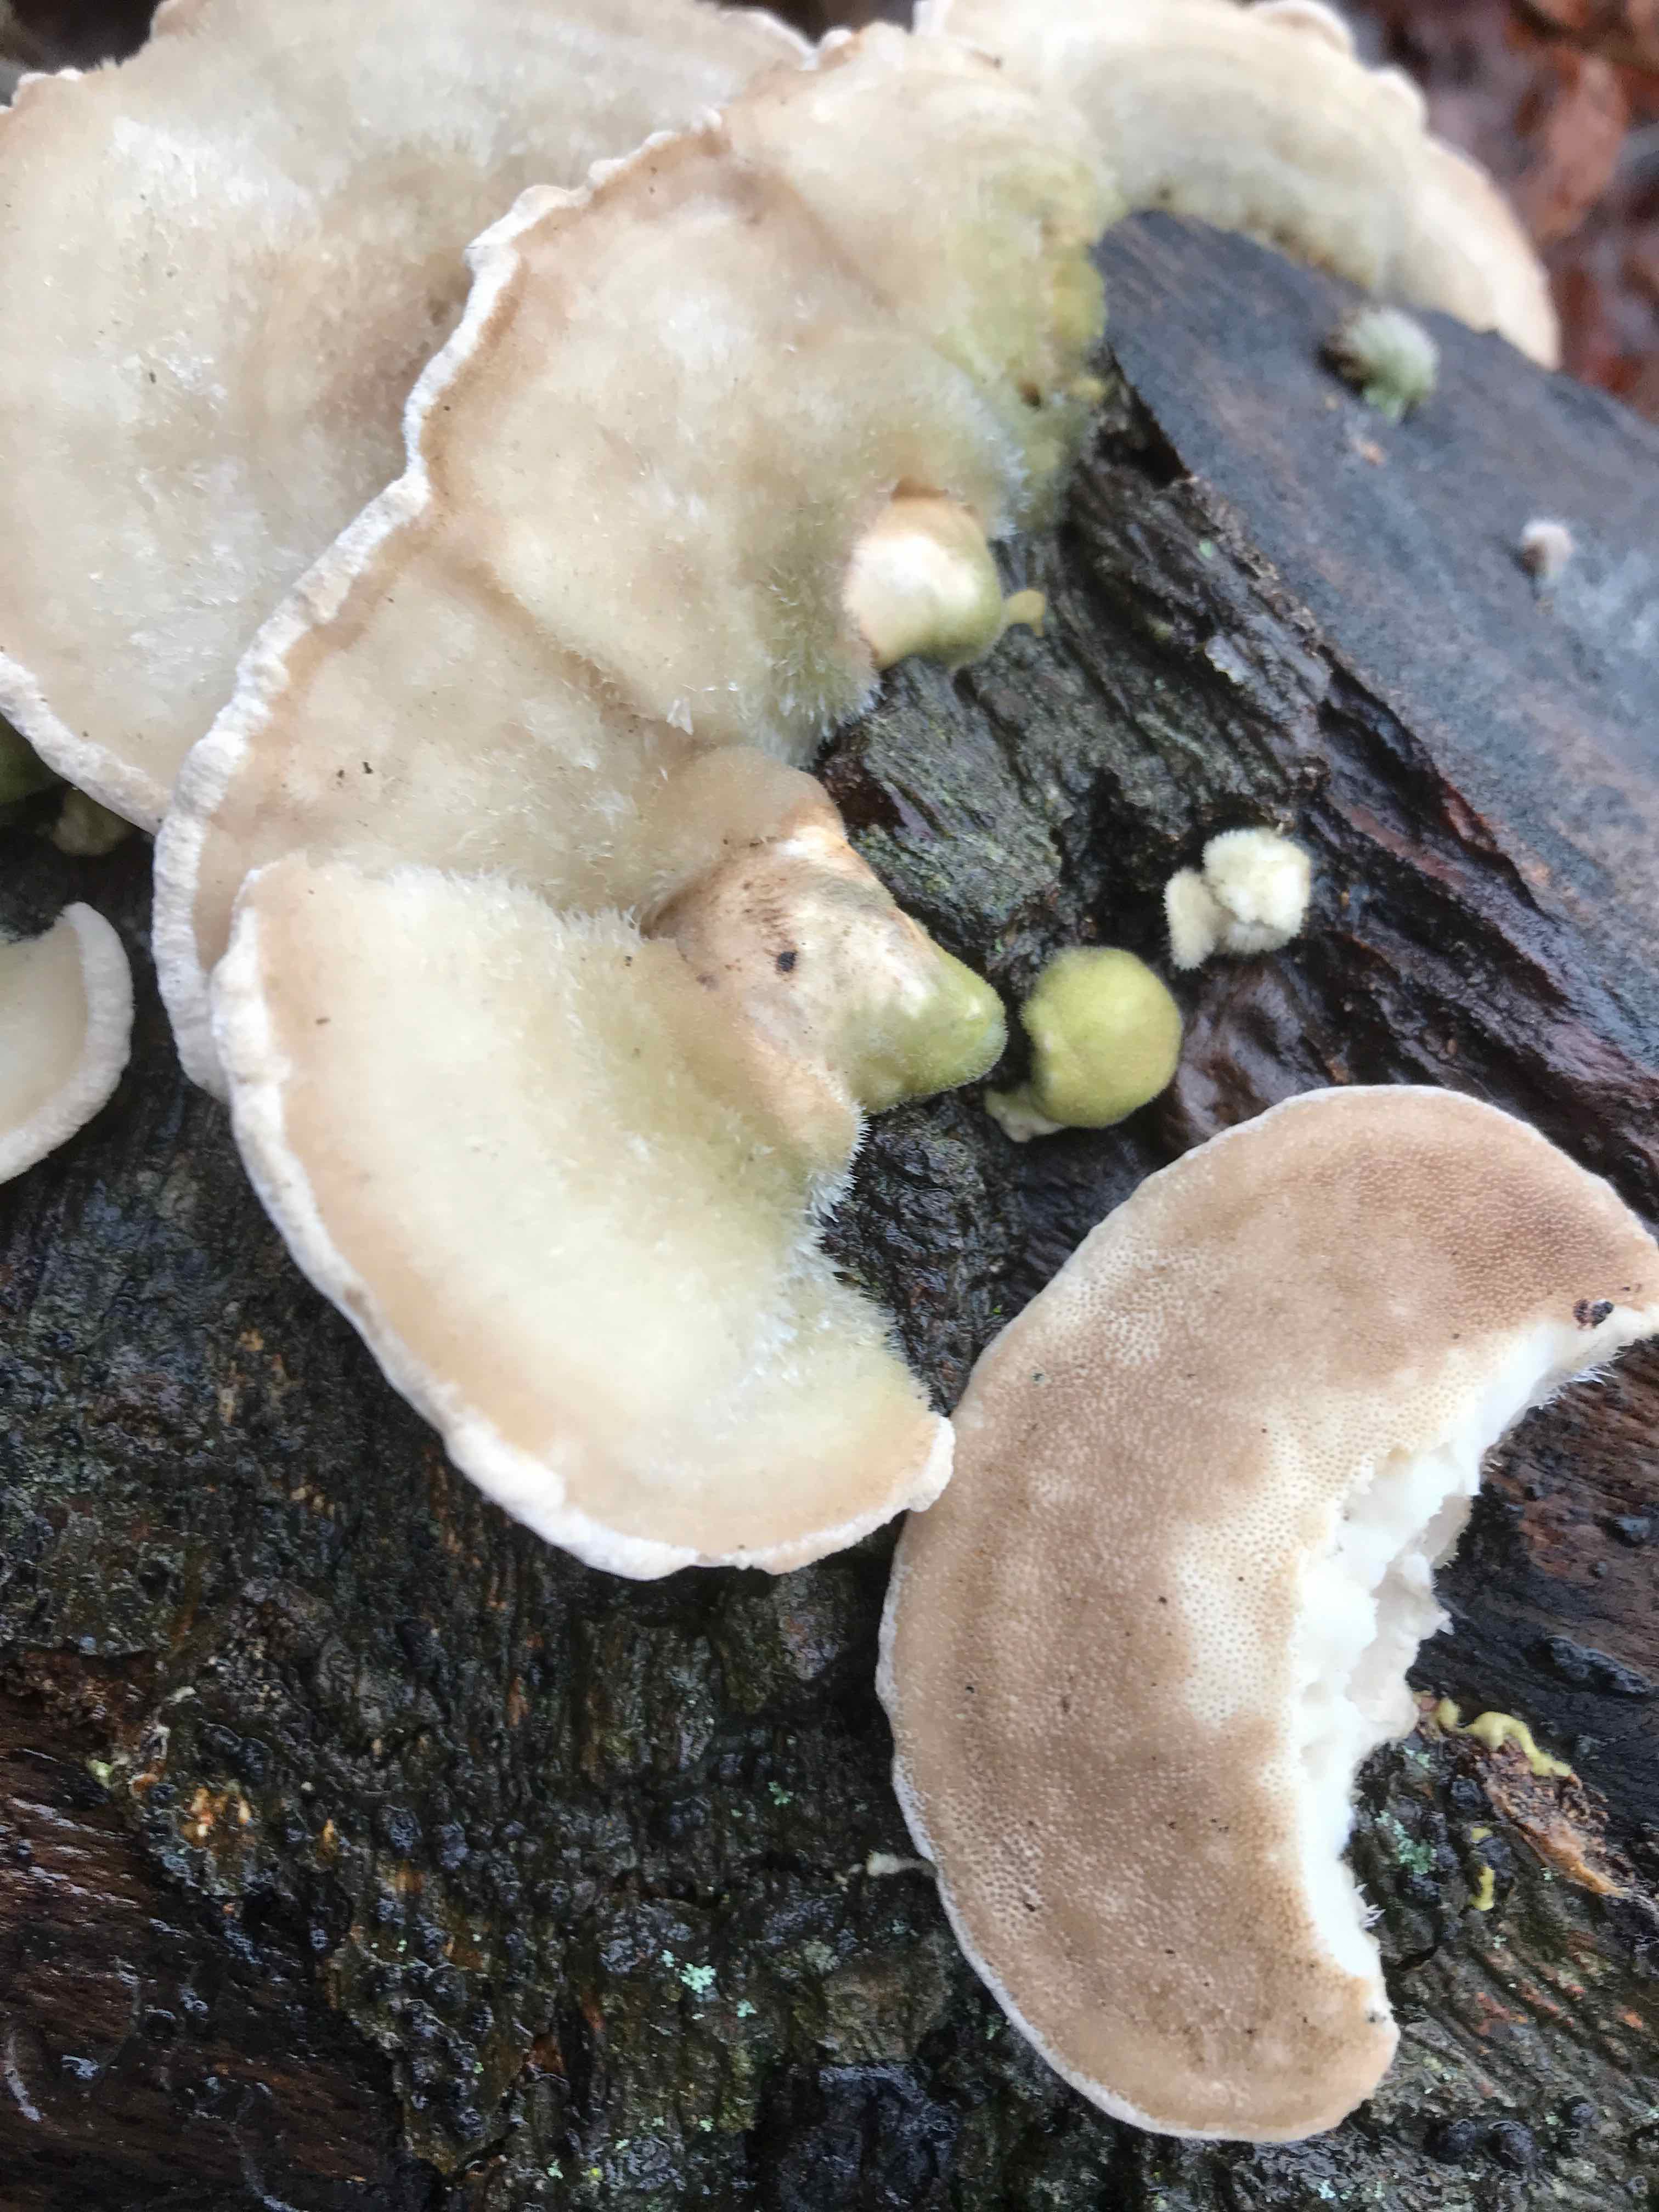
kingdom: Fungi
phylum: Basidiomycota
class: Agaricomycetes
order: Polyporales
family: Polyporaceae
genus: Trametes
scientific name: Trametes hirsuta
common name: håret læderporesvamp
